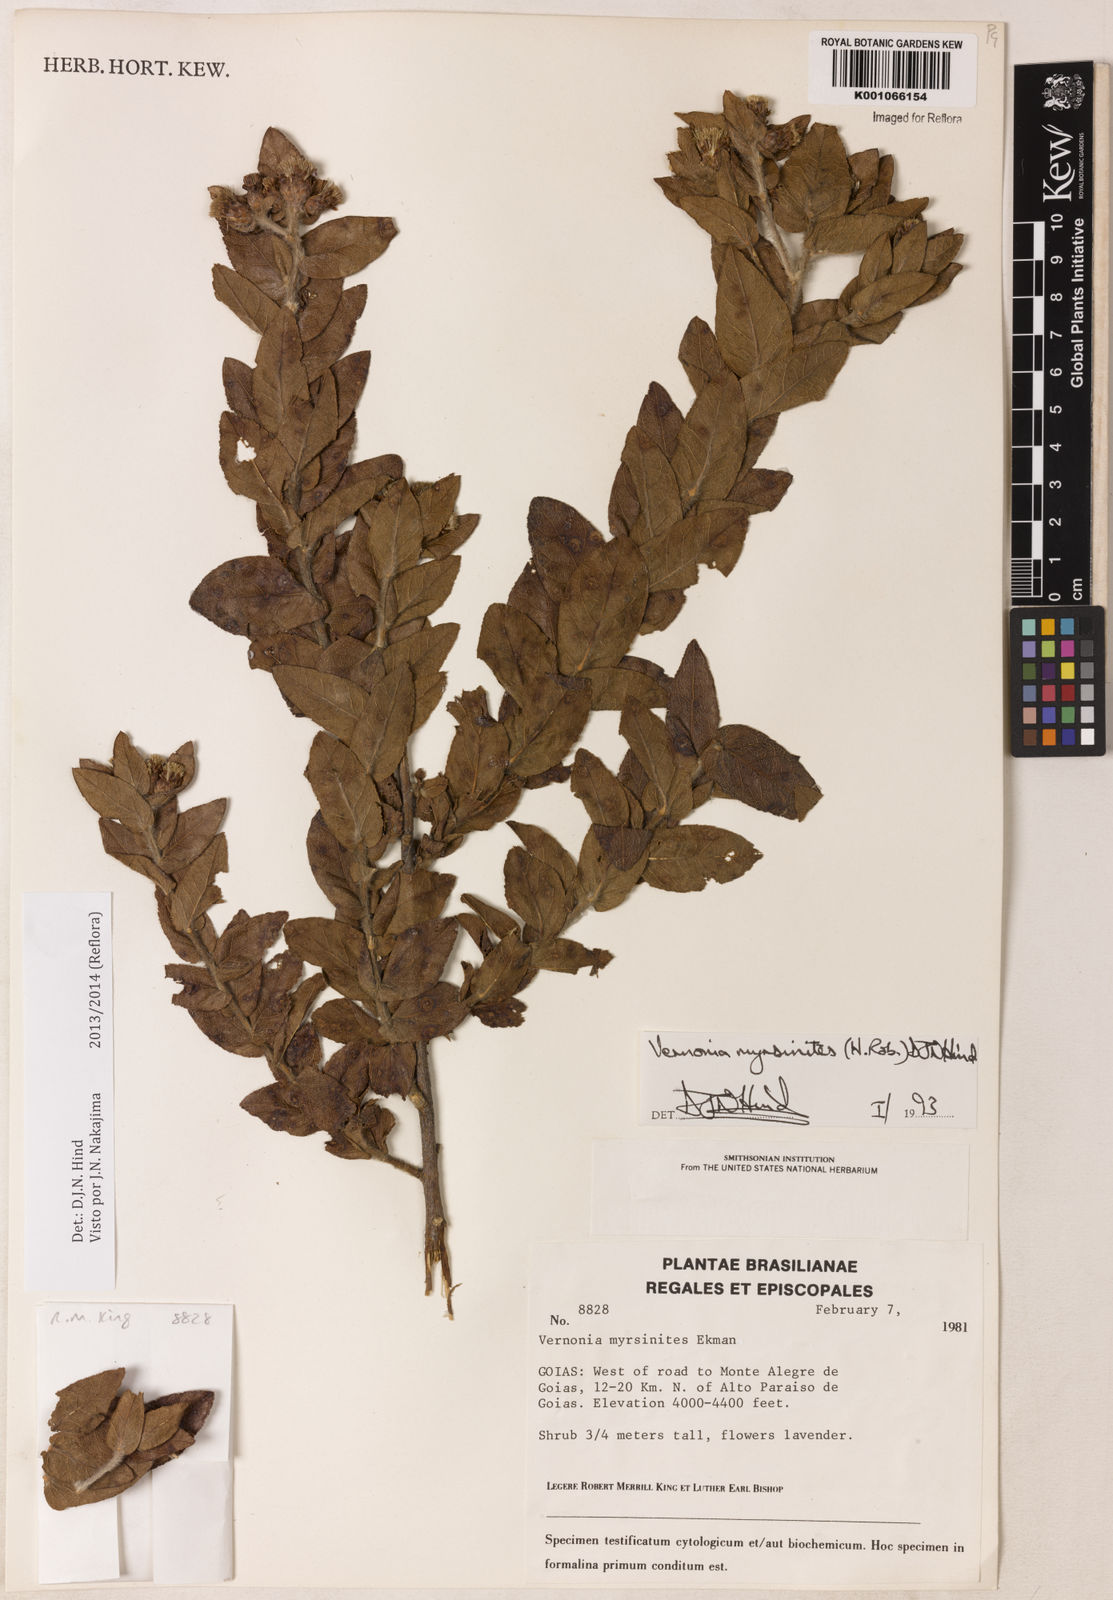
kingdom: Plantae
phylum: Tracheophyta
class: Magnoliopsida
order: Asterales
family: Asteraceae
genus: Lessingianthus
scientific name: Lessingianthus myrsinites
